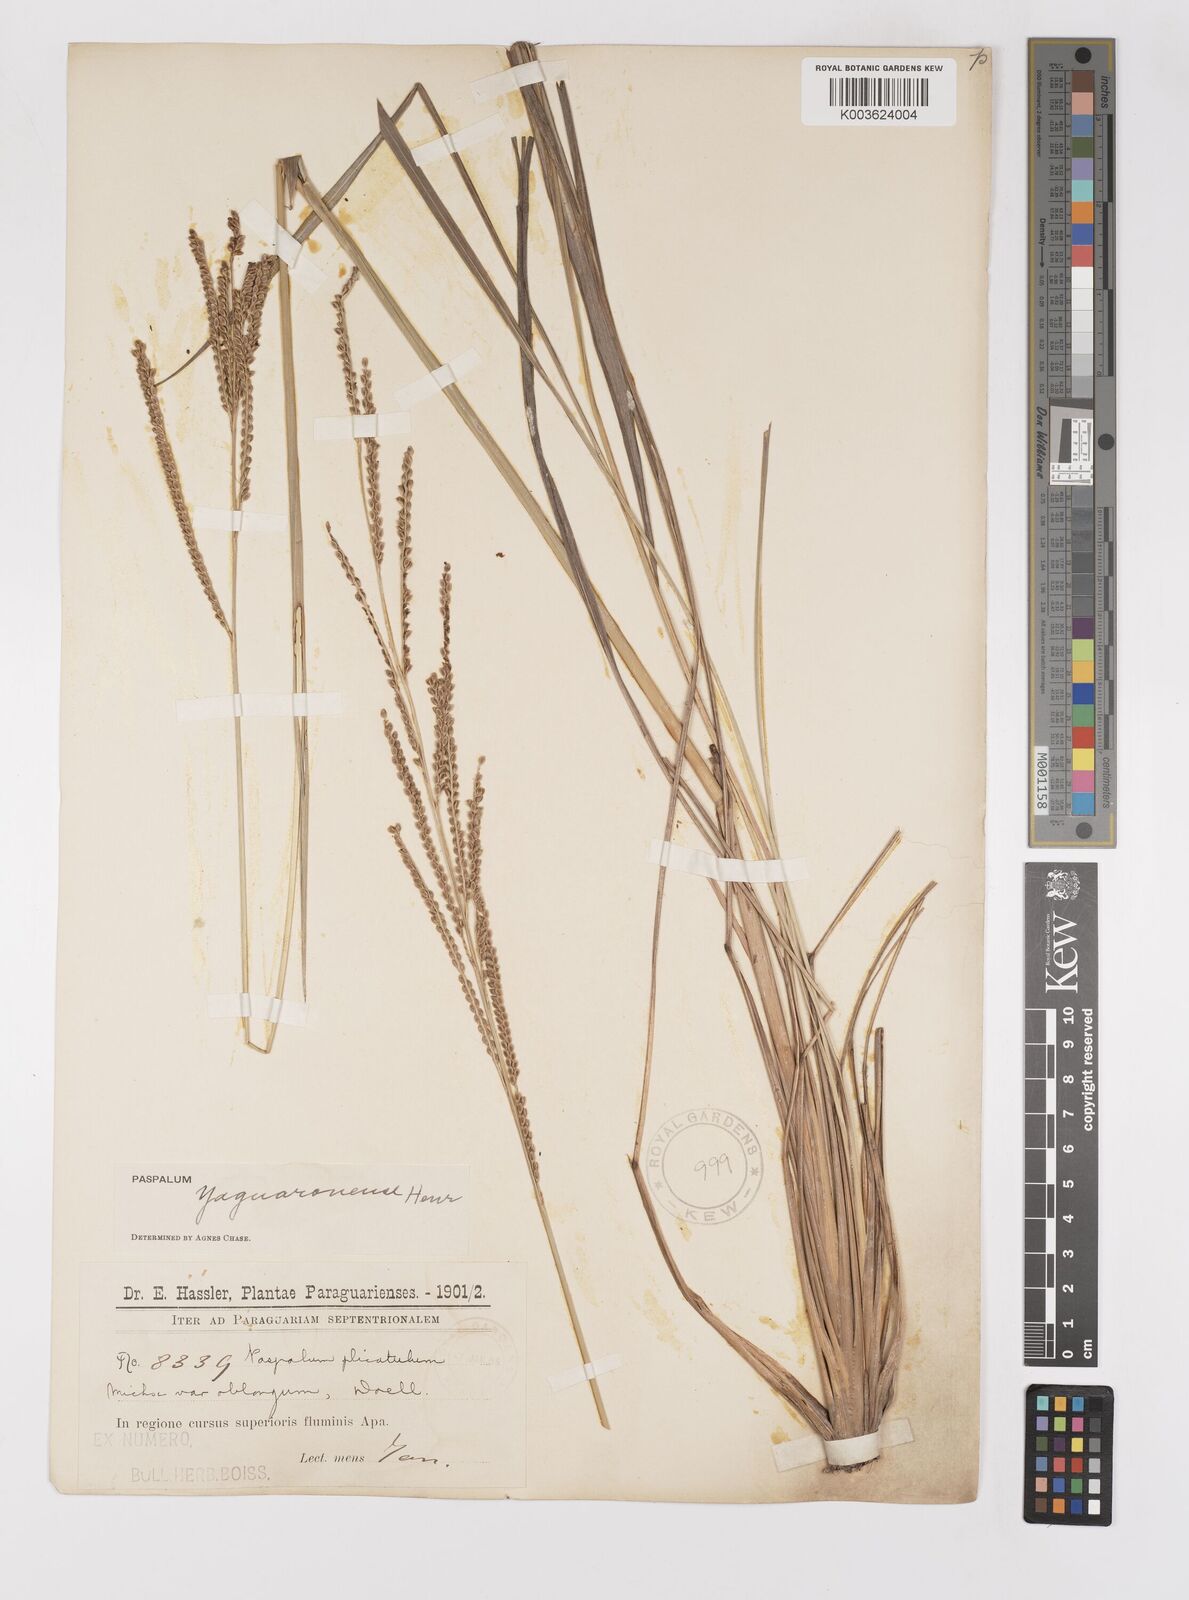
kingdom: Plantae
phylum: Tracheophyta
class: Liliopsida
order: Poales
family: Poaceae
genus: Paspalum
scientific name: Paspalum glaucescens
